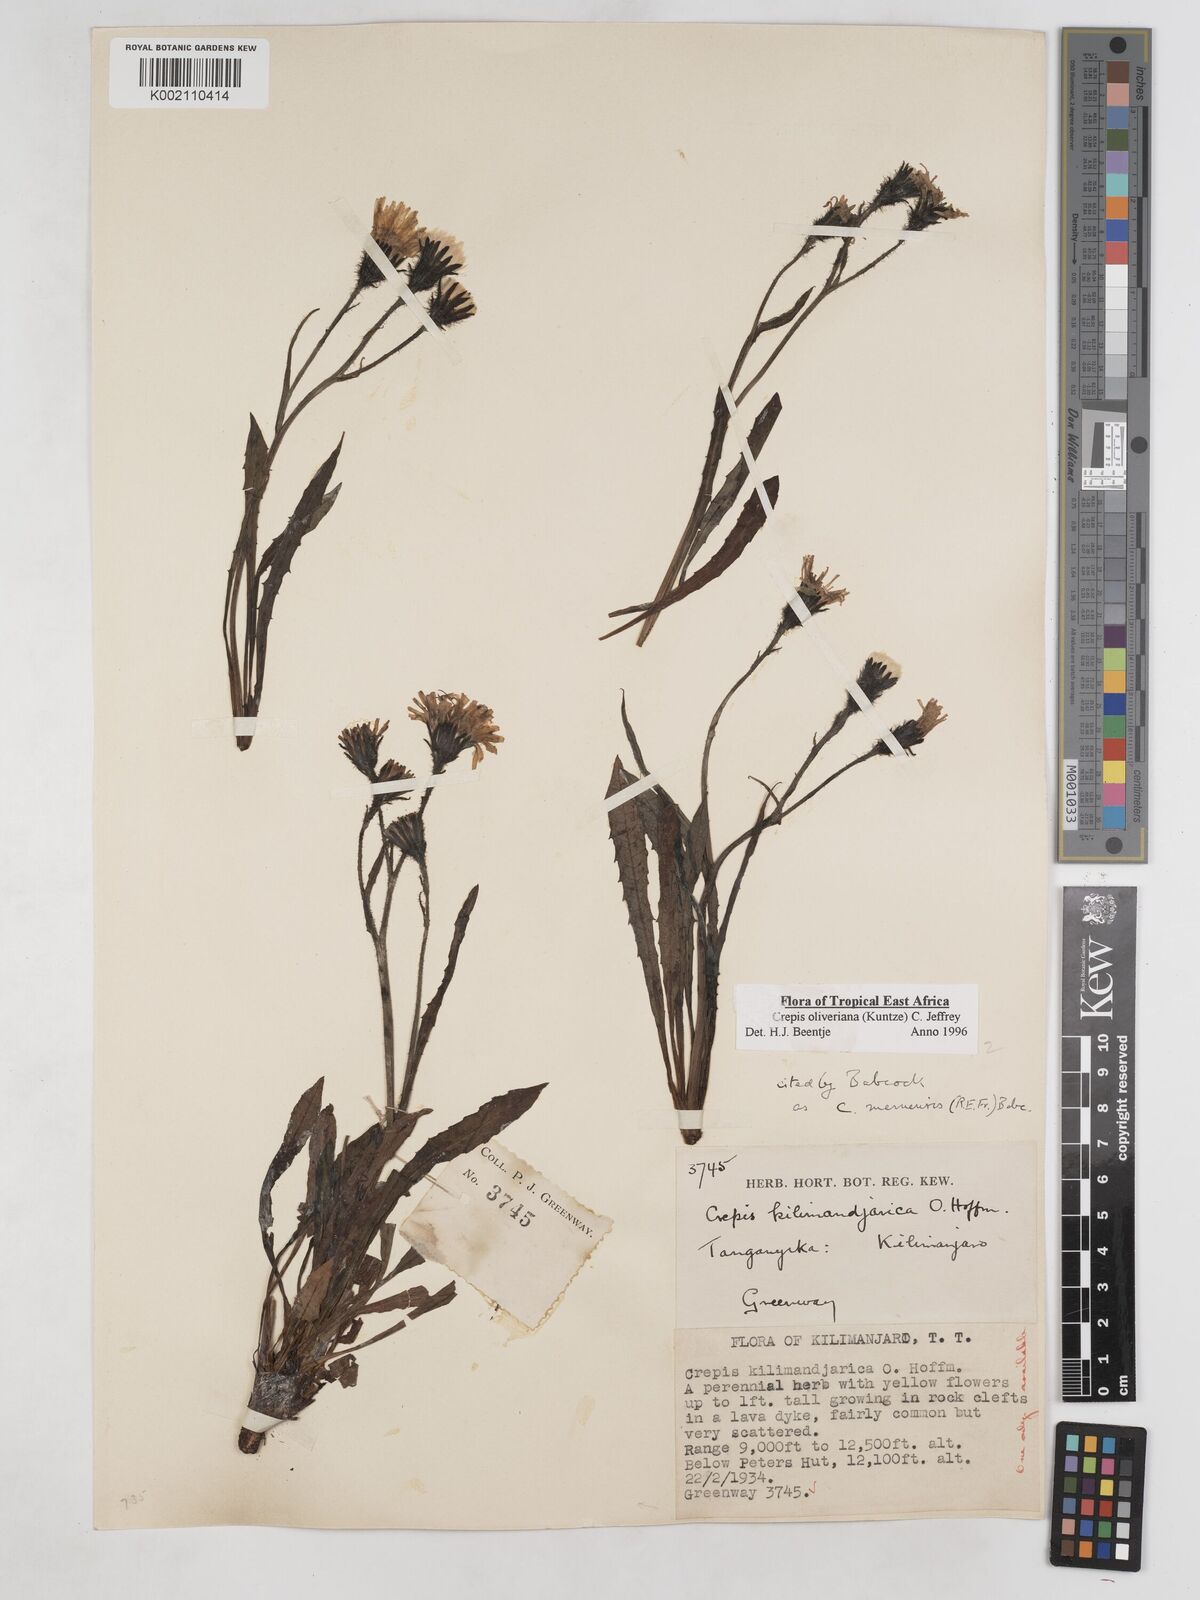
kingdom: Plantae
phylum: Tracheophyta
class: Magnoliopsida
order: Asterales
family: Asteraceae
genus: Crepis
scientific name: Crepis hypochoeridea
